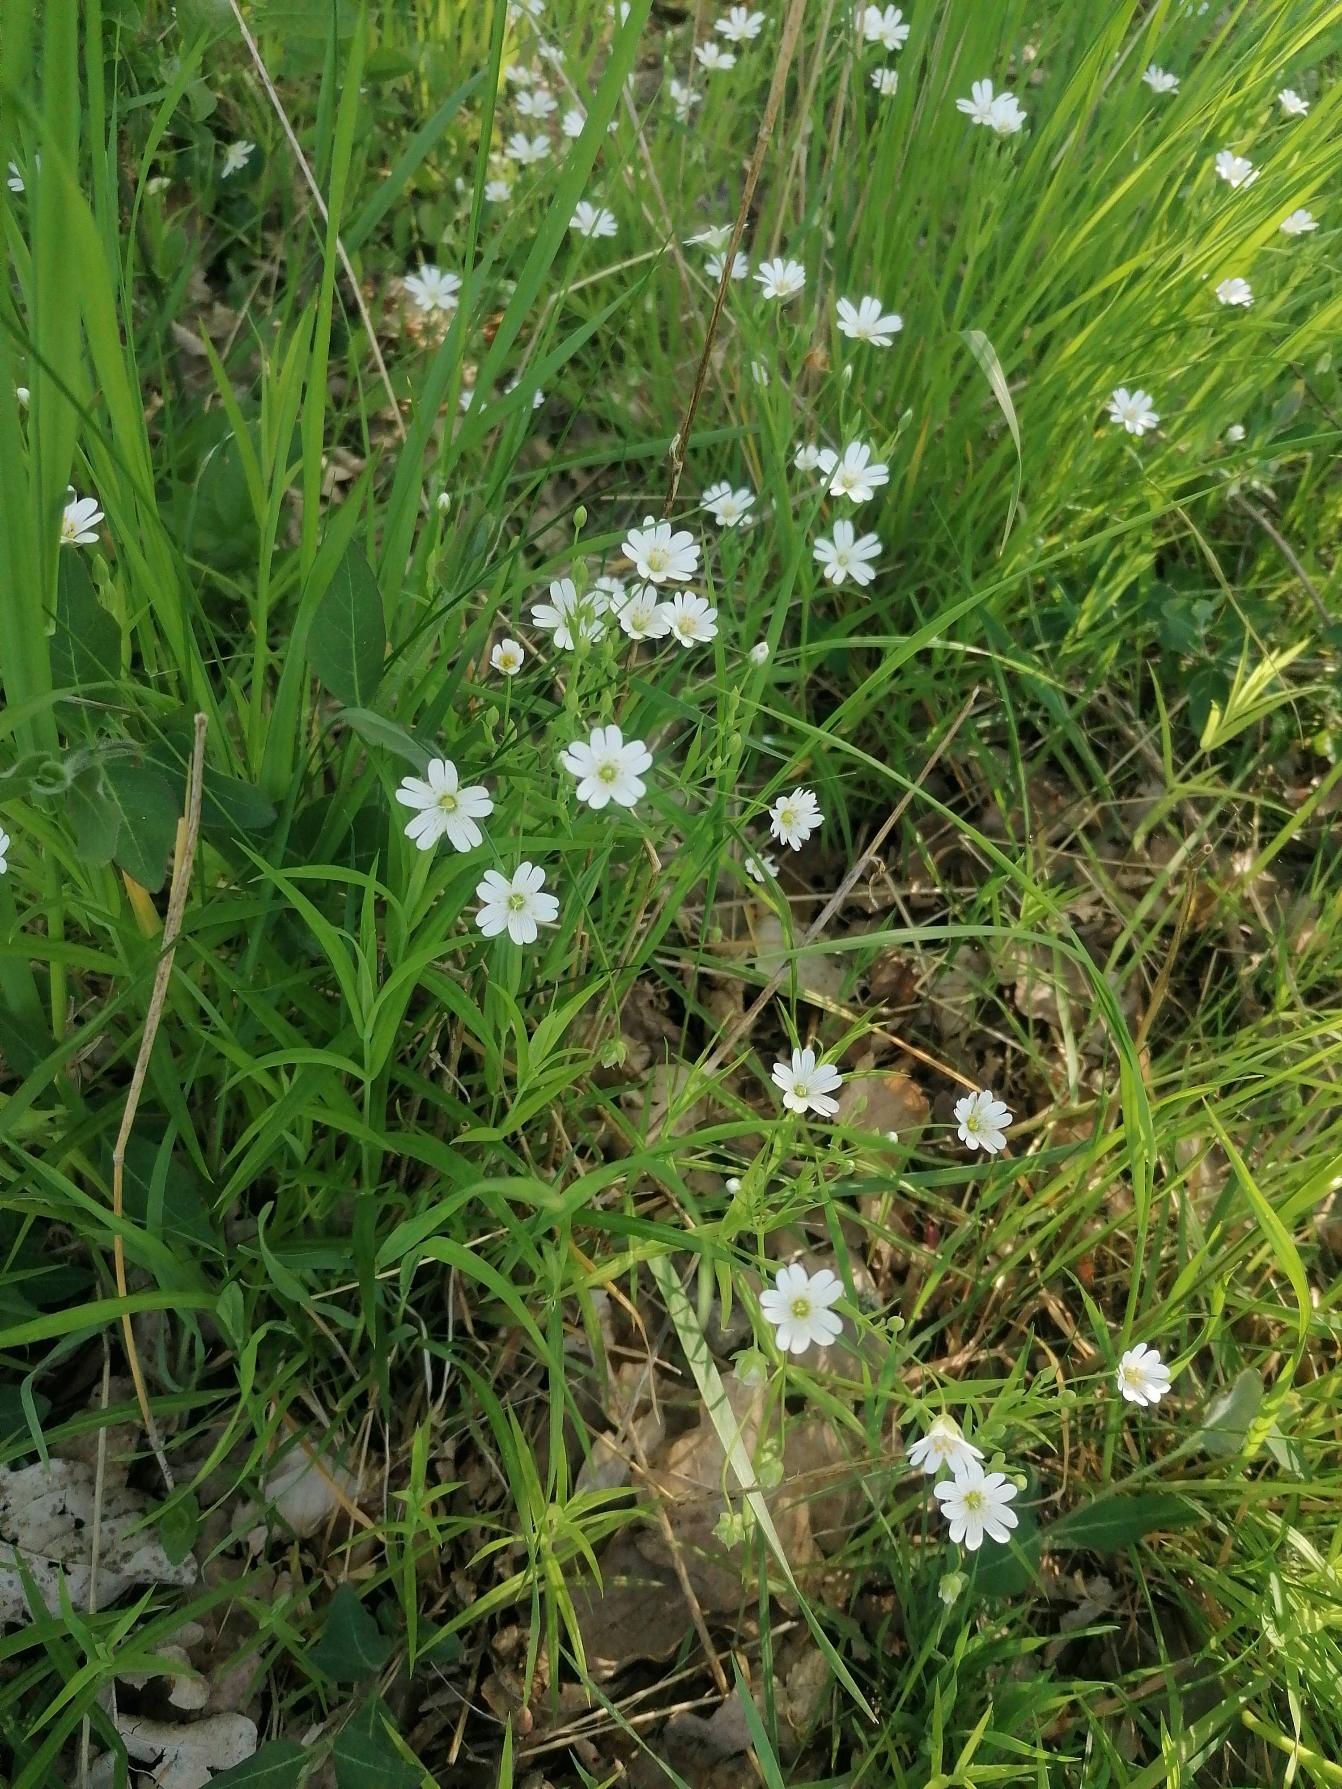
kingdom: Plantae
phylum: Tracheophyta
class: Magnoliopsida
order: Caryophyllales
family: Caryophyllaceae
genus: Rabelera
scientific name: Rabelera holostea
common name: Stor fladstjerne
